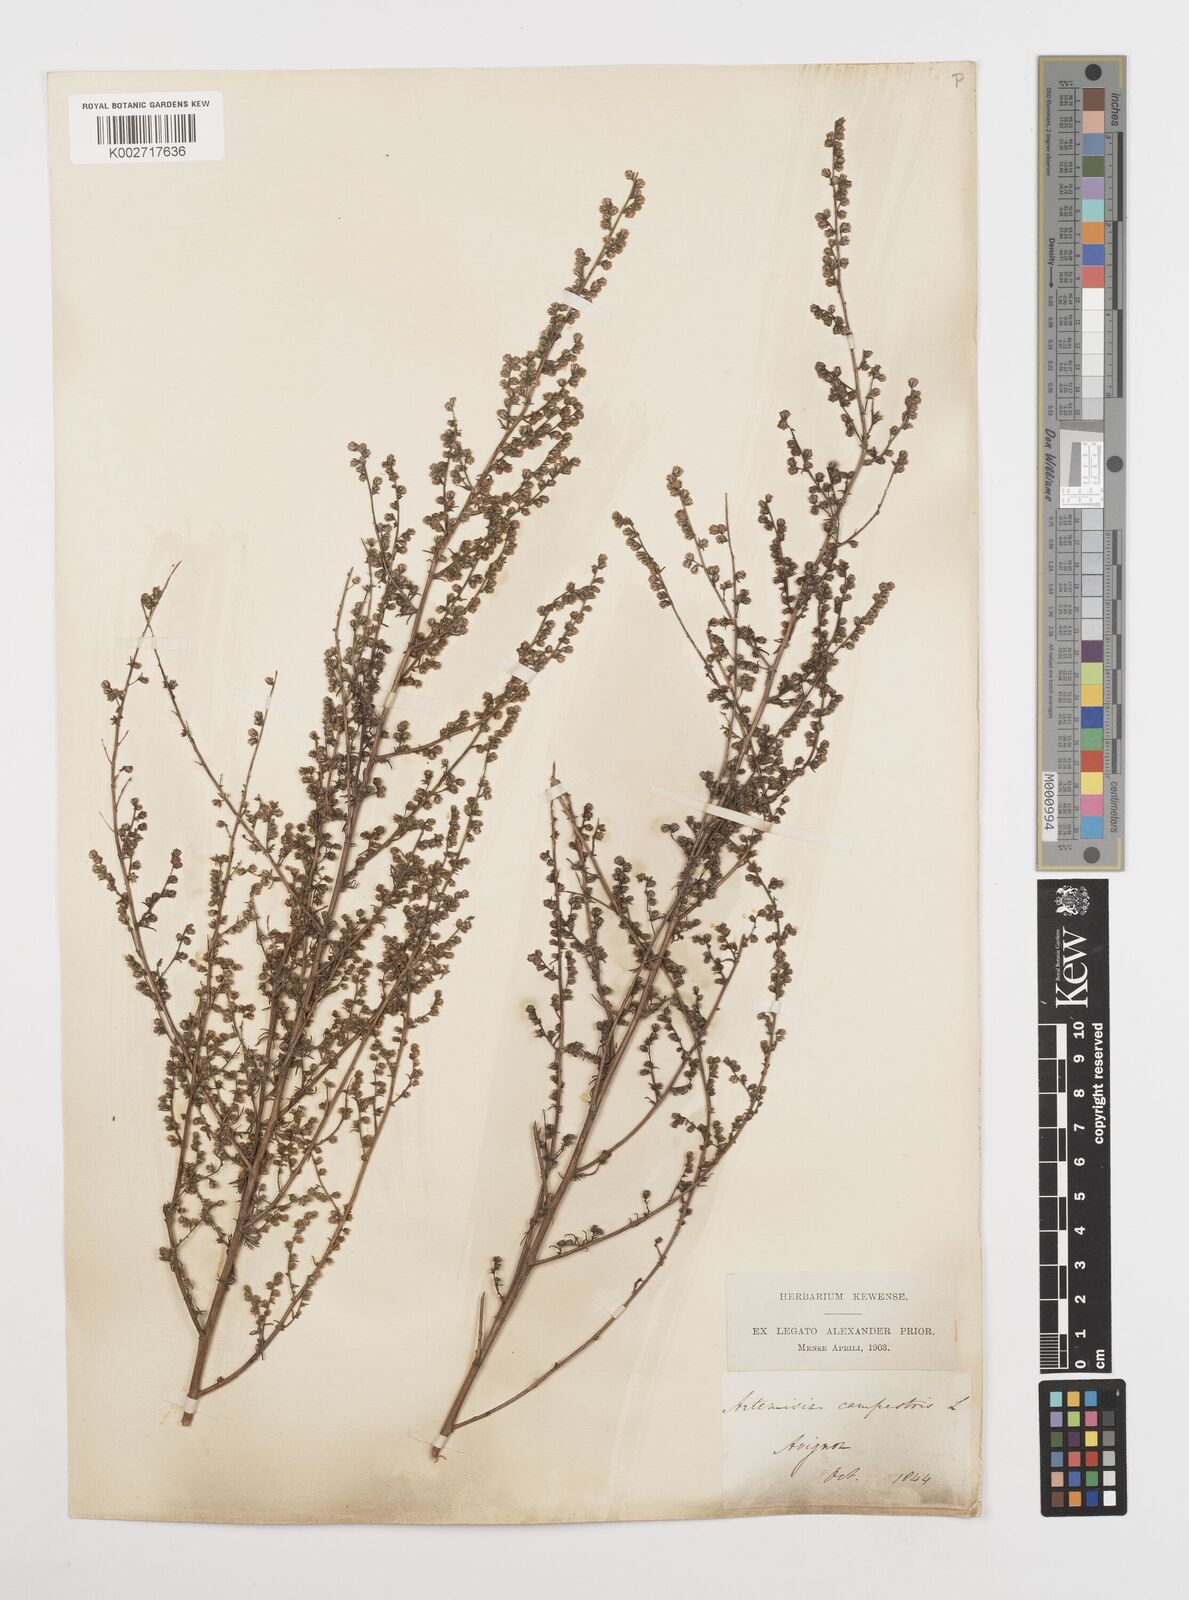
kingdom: Plantae
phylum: Tracheophyta
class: Magnoliopsida
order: Asterales
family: Asteraceae
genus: Artemisia
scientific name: Artemisia campestris
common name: Field wormwood
